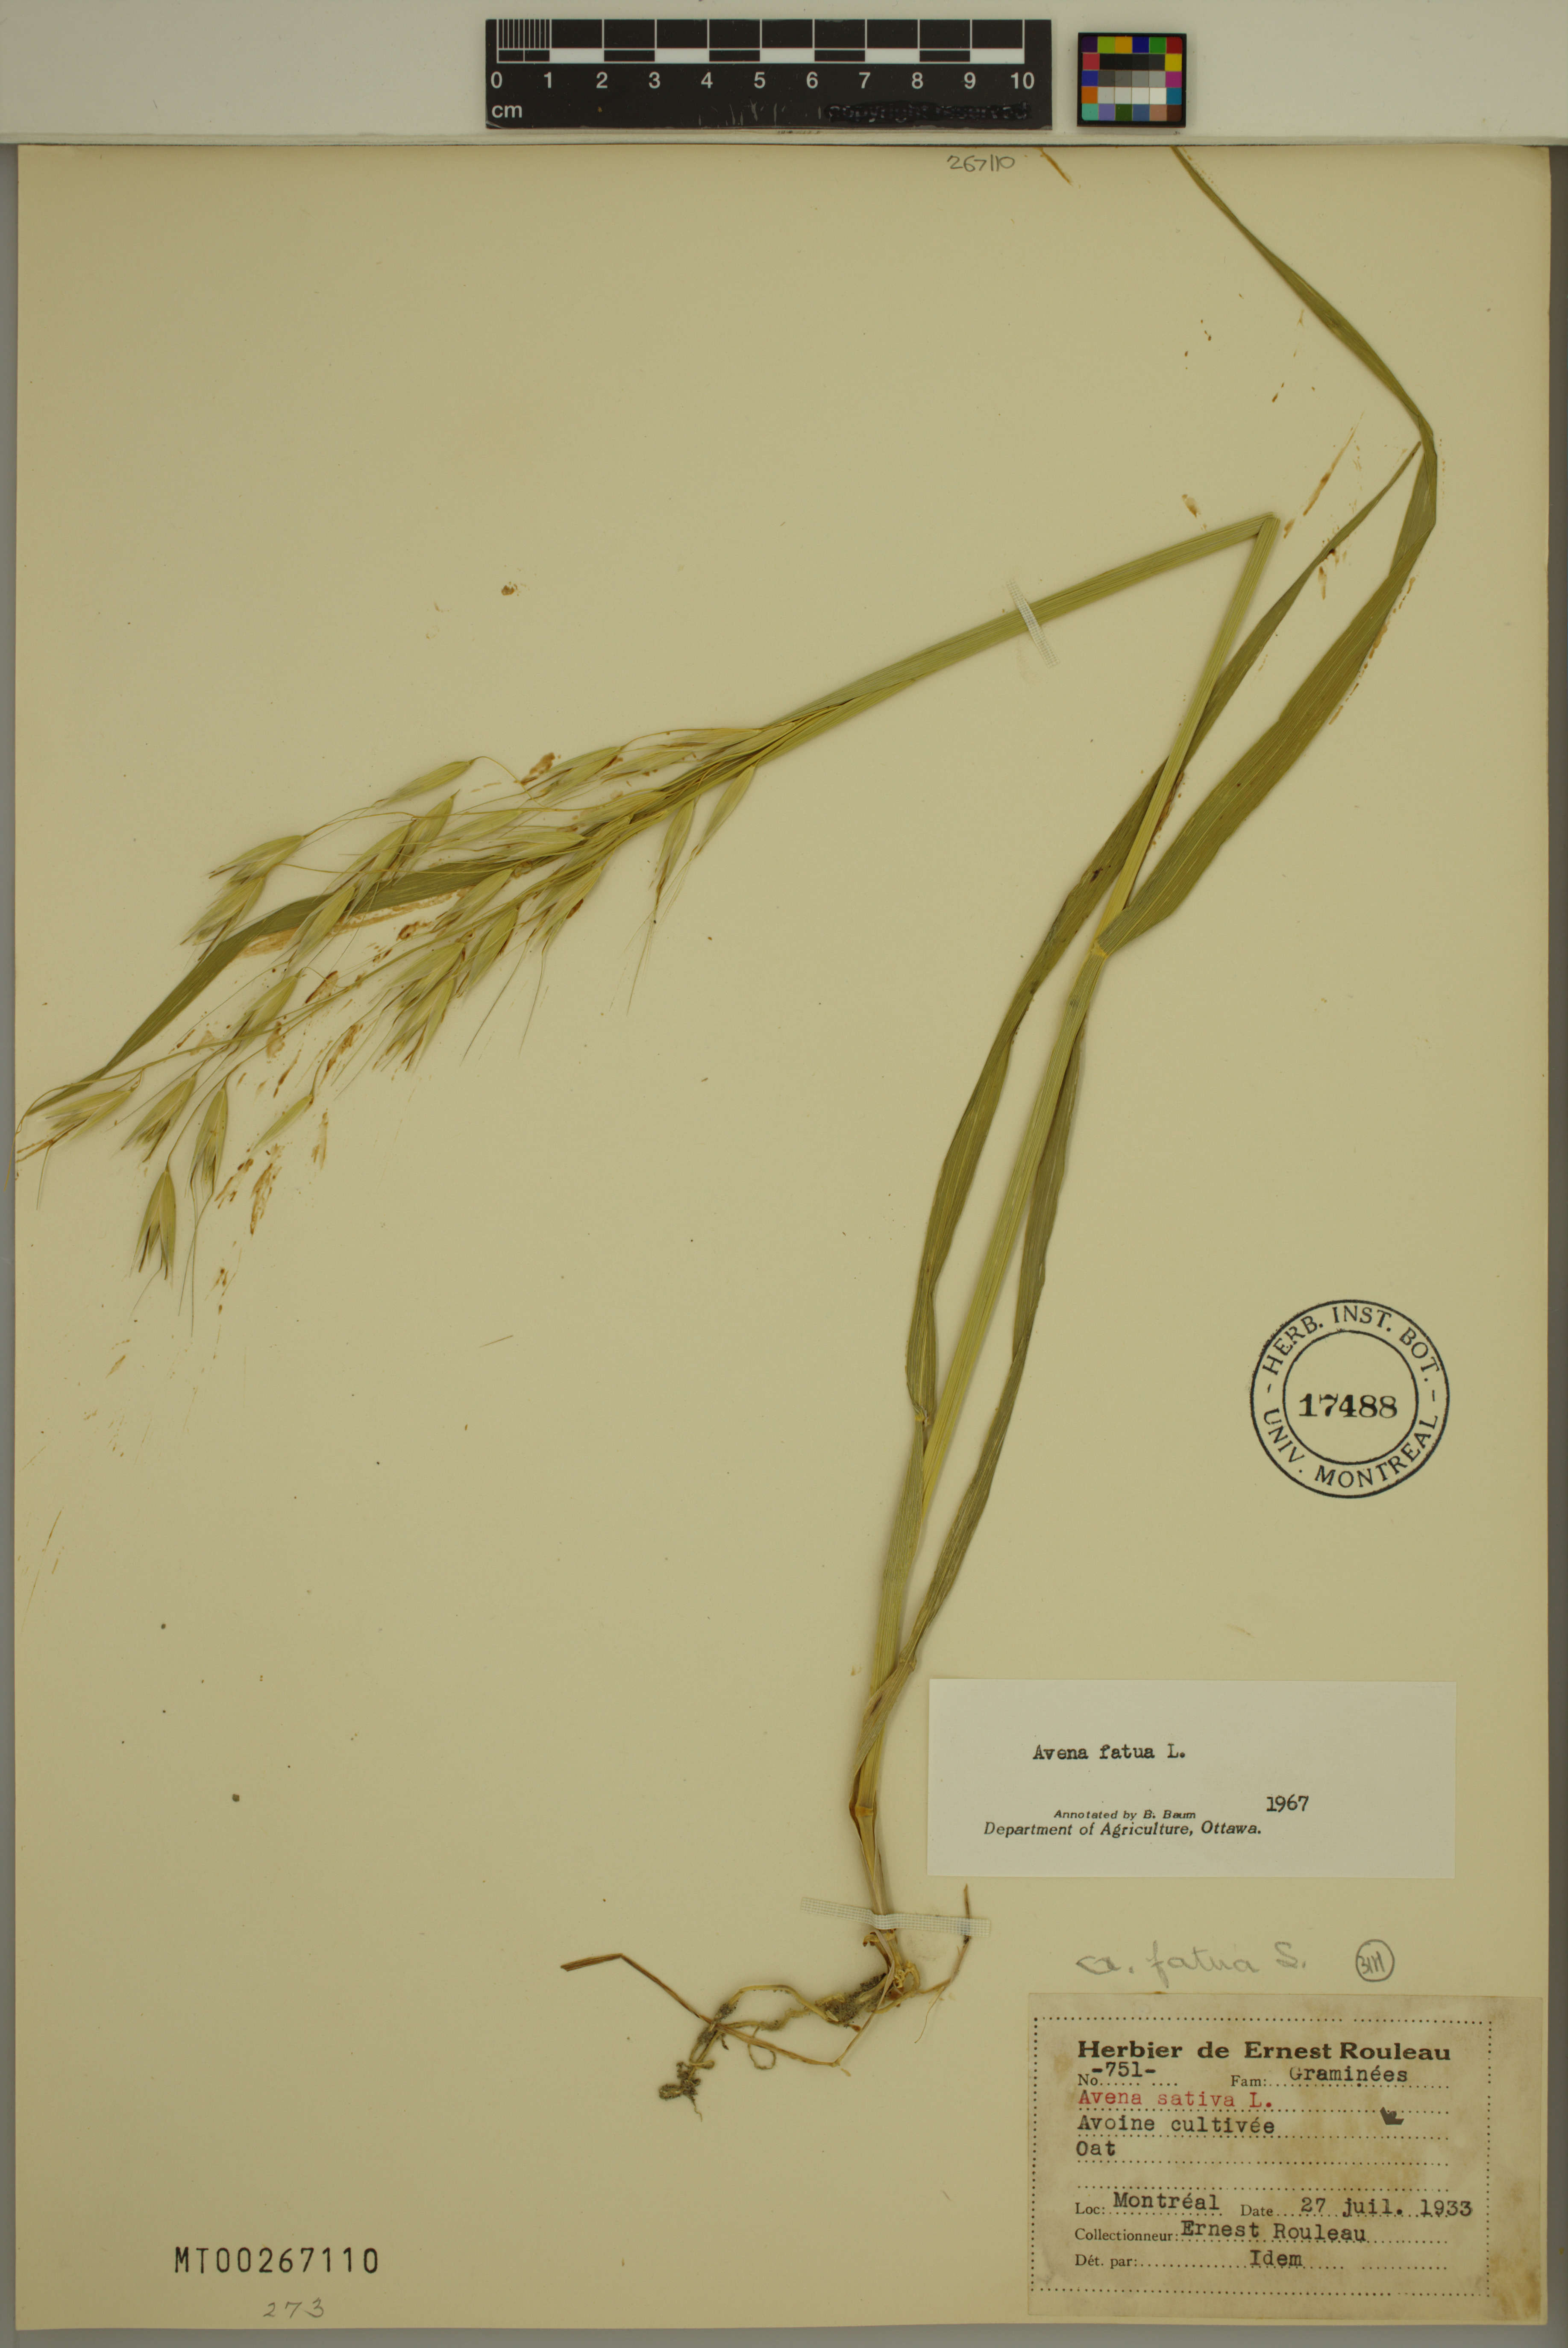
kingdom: Plantae
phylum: Tracheophyta
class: Liliopsida
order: Poales
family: Poaceae
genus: Avena
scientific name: Avena fatua
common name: Wild oat
